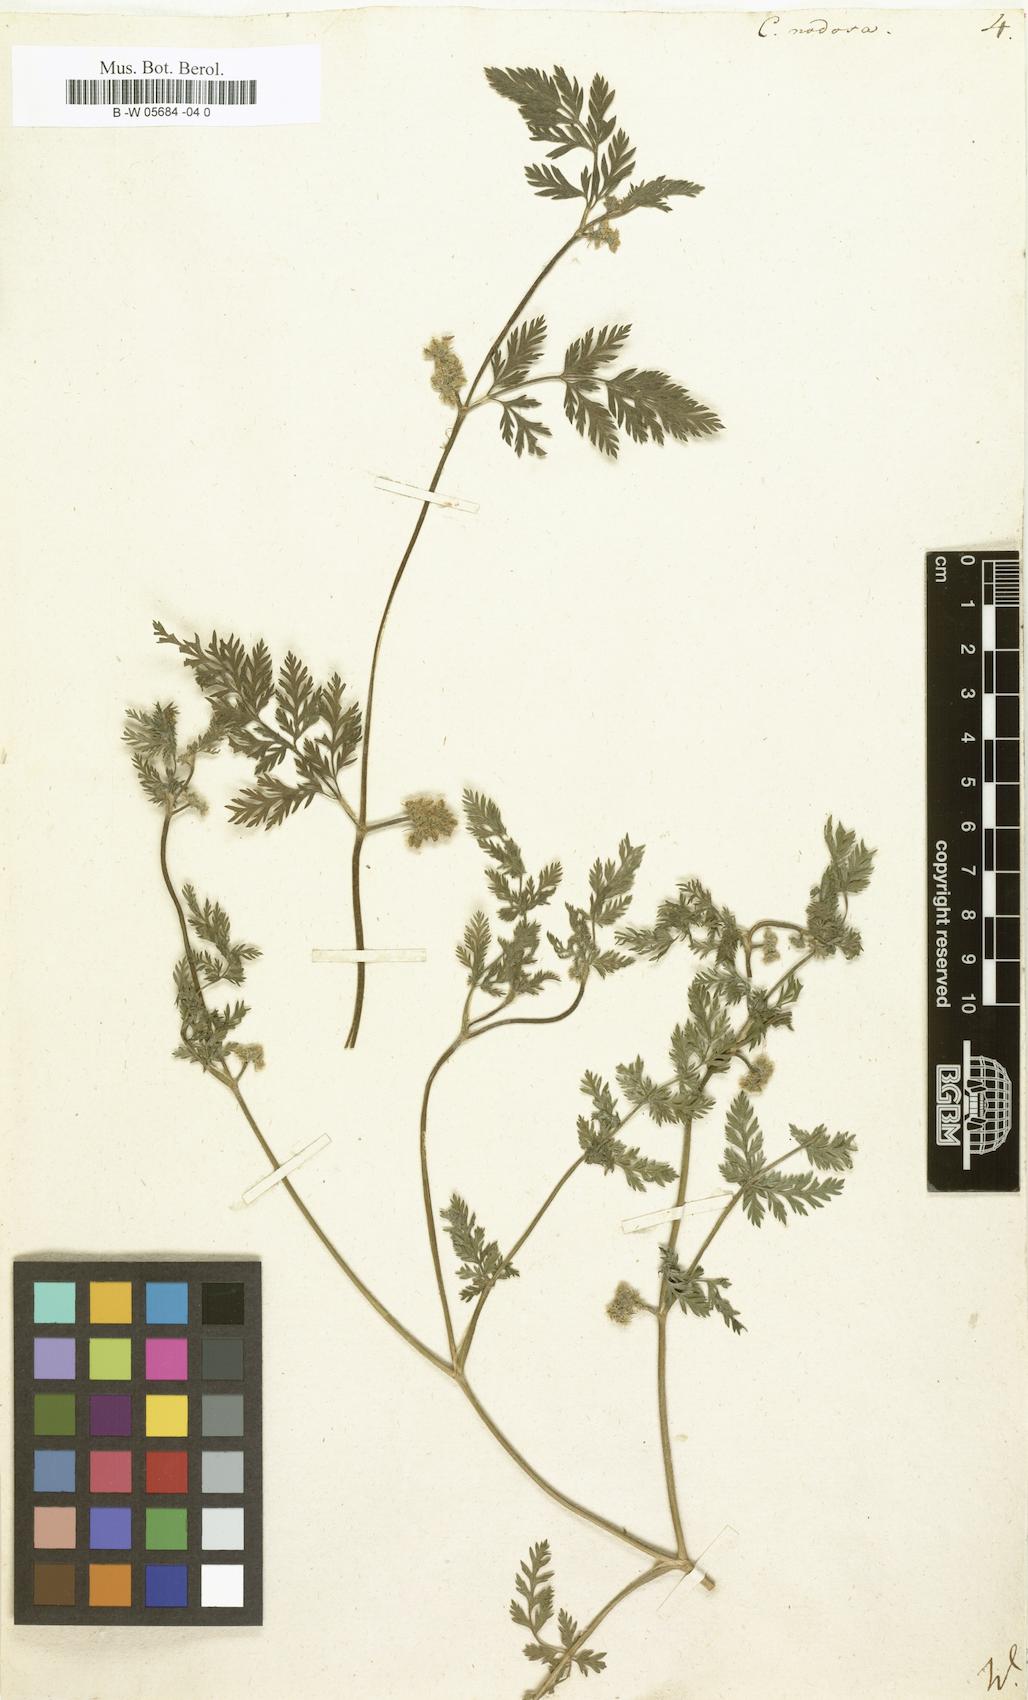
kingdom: Plantae
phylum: Tracheophyta
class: Magnoliopsida
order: Apiales
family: Apiaceae
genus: Torilis
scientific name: Torilis nodosa
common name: Knotted hedge-parsley
